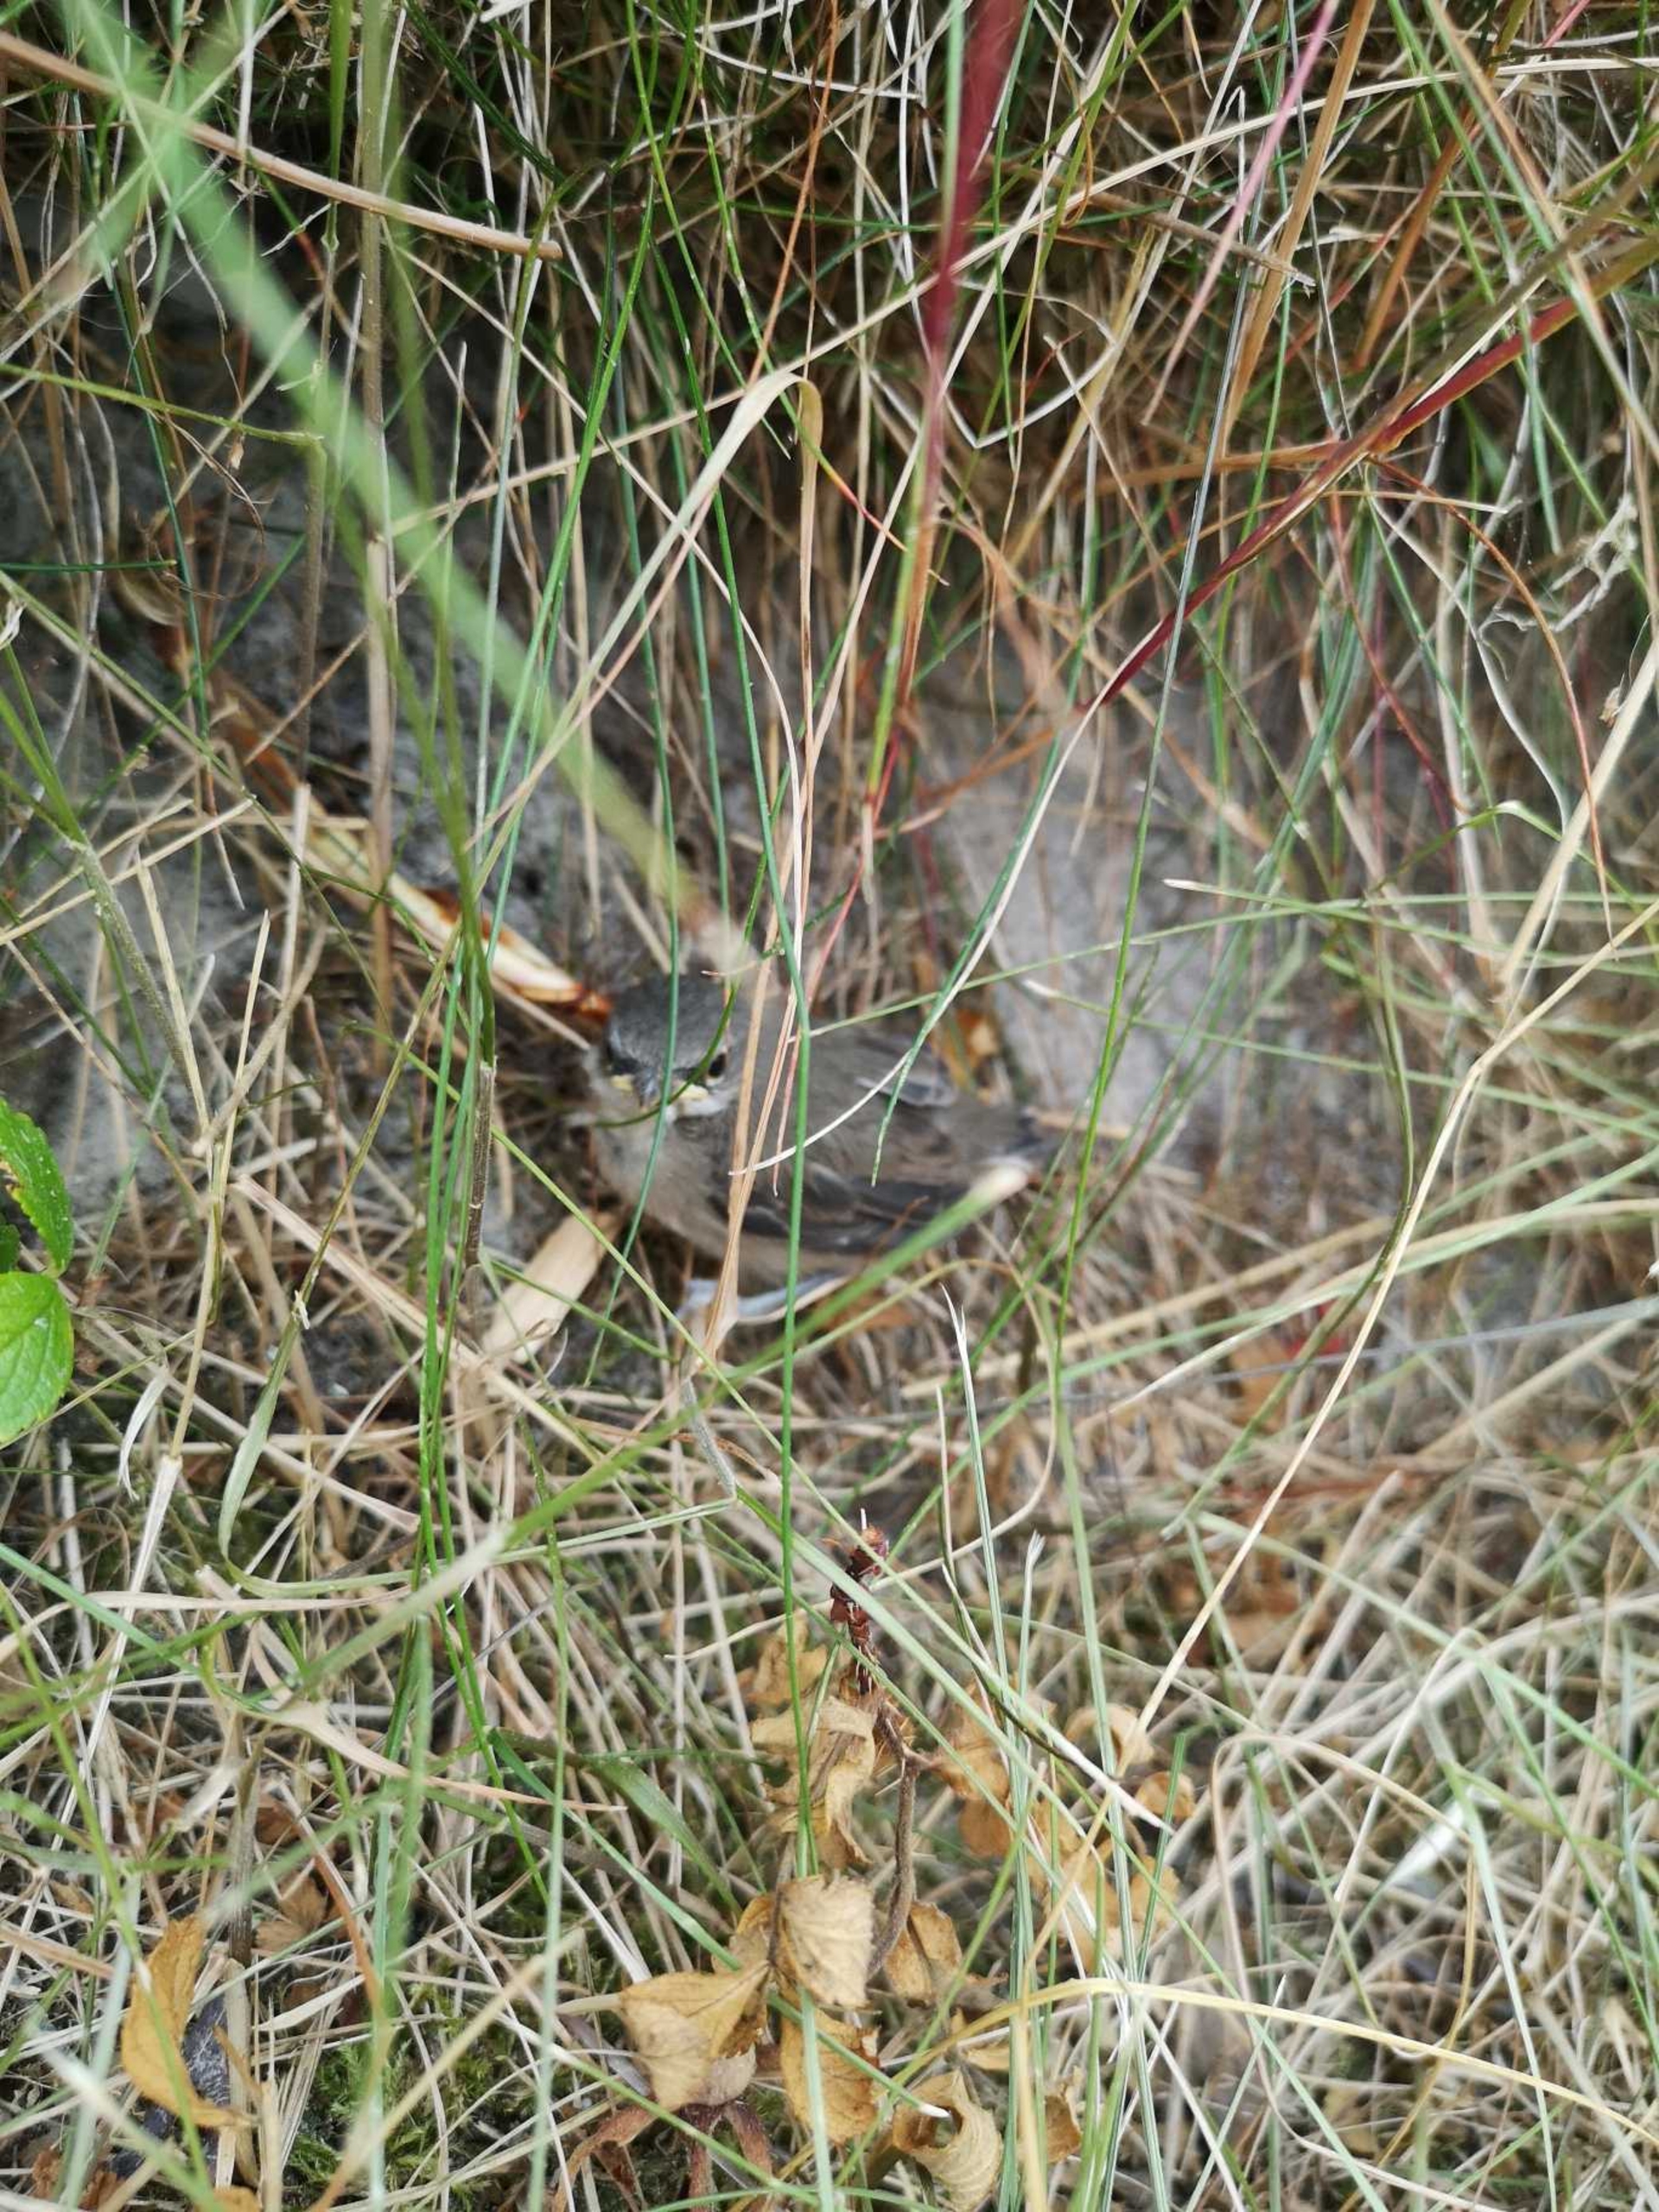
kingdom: Animalia
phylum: Chordata
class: Aves
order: Passeriformes
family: Sylviidae
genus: Sylvia
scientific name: Sylvia communis
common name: Tornsanger
